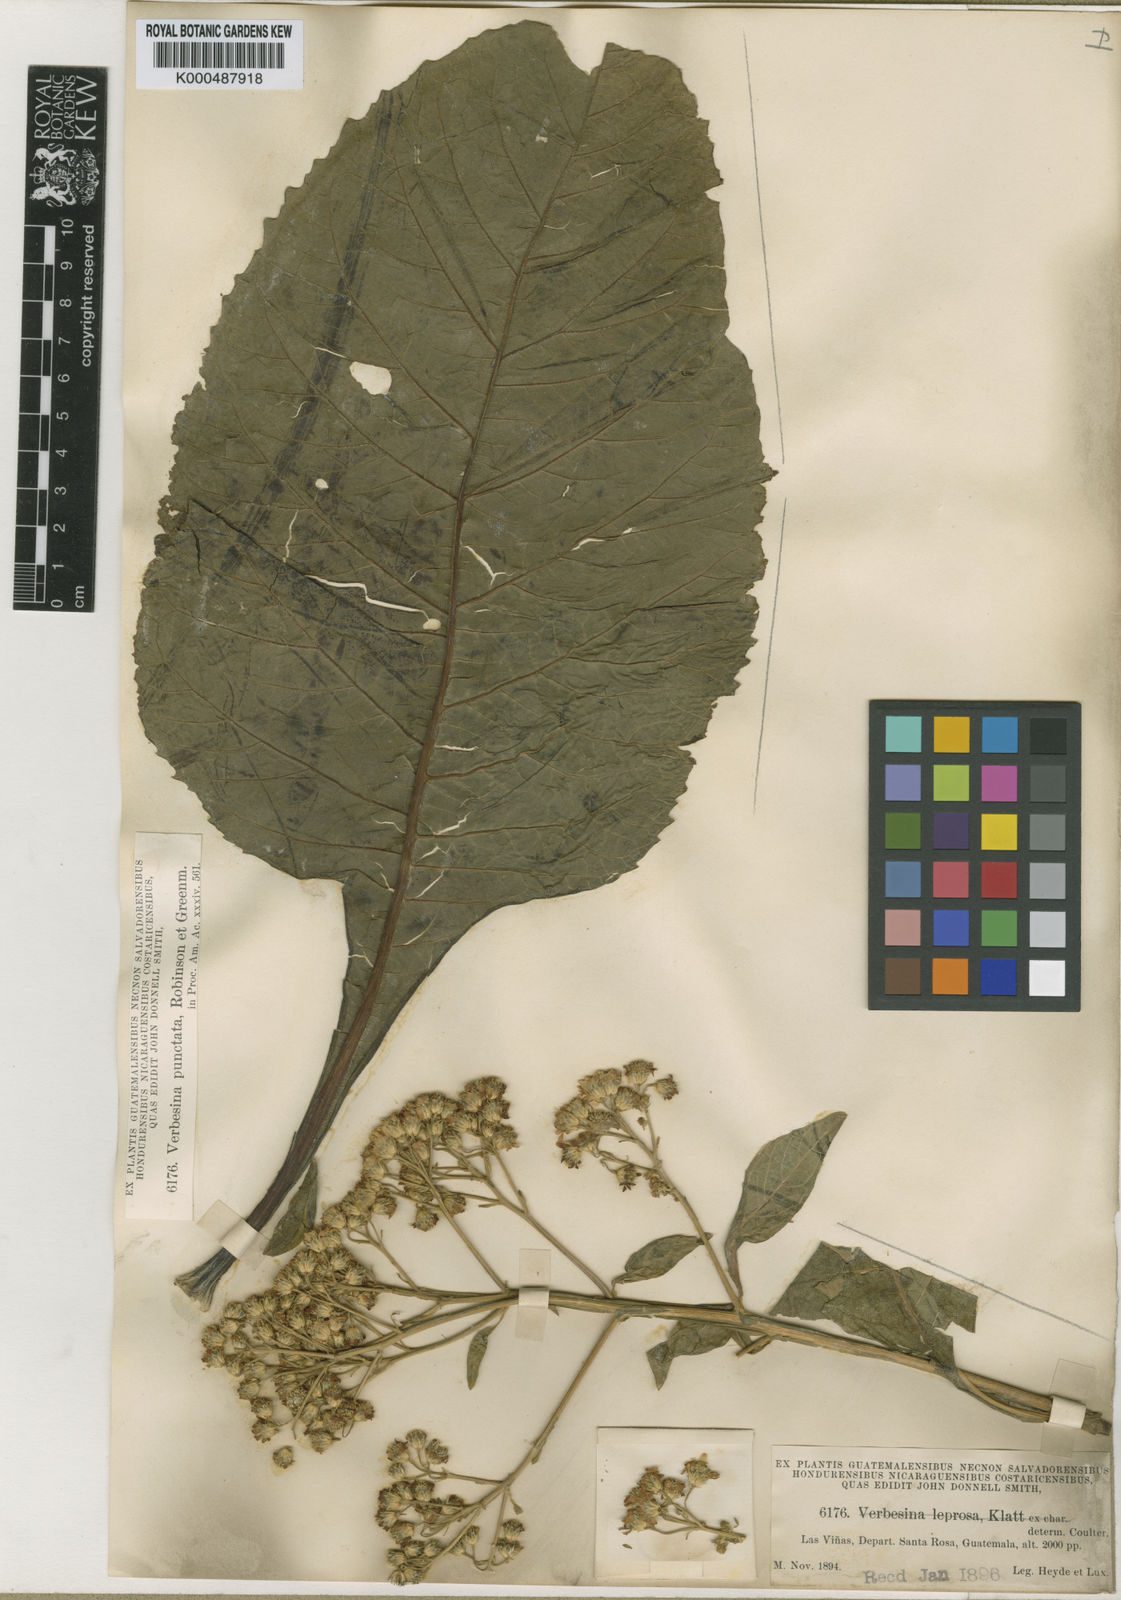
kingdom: Plantae
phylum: Tracheophyta
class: Magnoliopsida
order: Asterales
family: Asteraceae
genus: Verbesina
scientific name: Verbesina pallens
